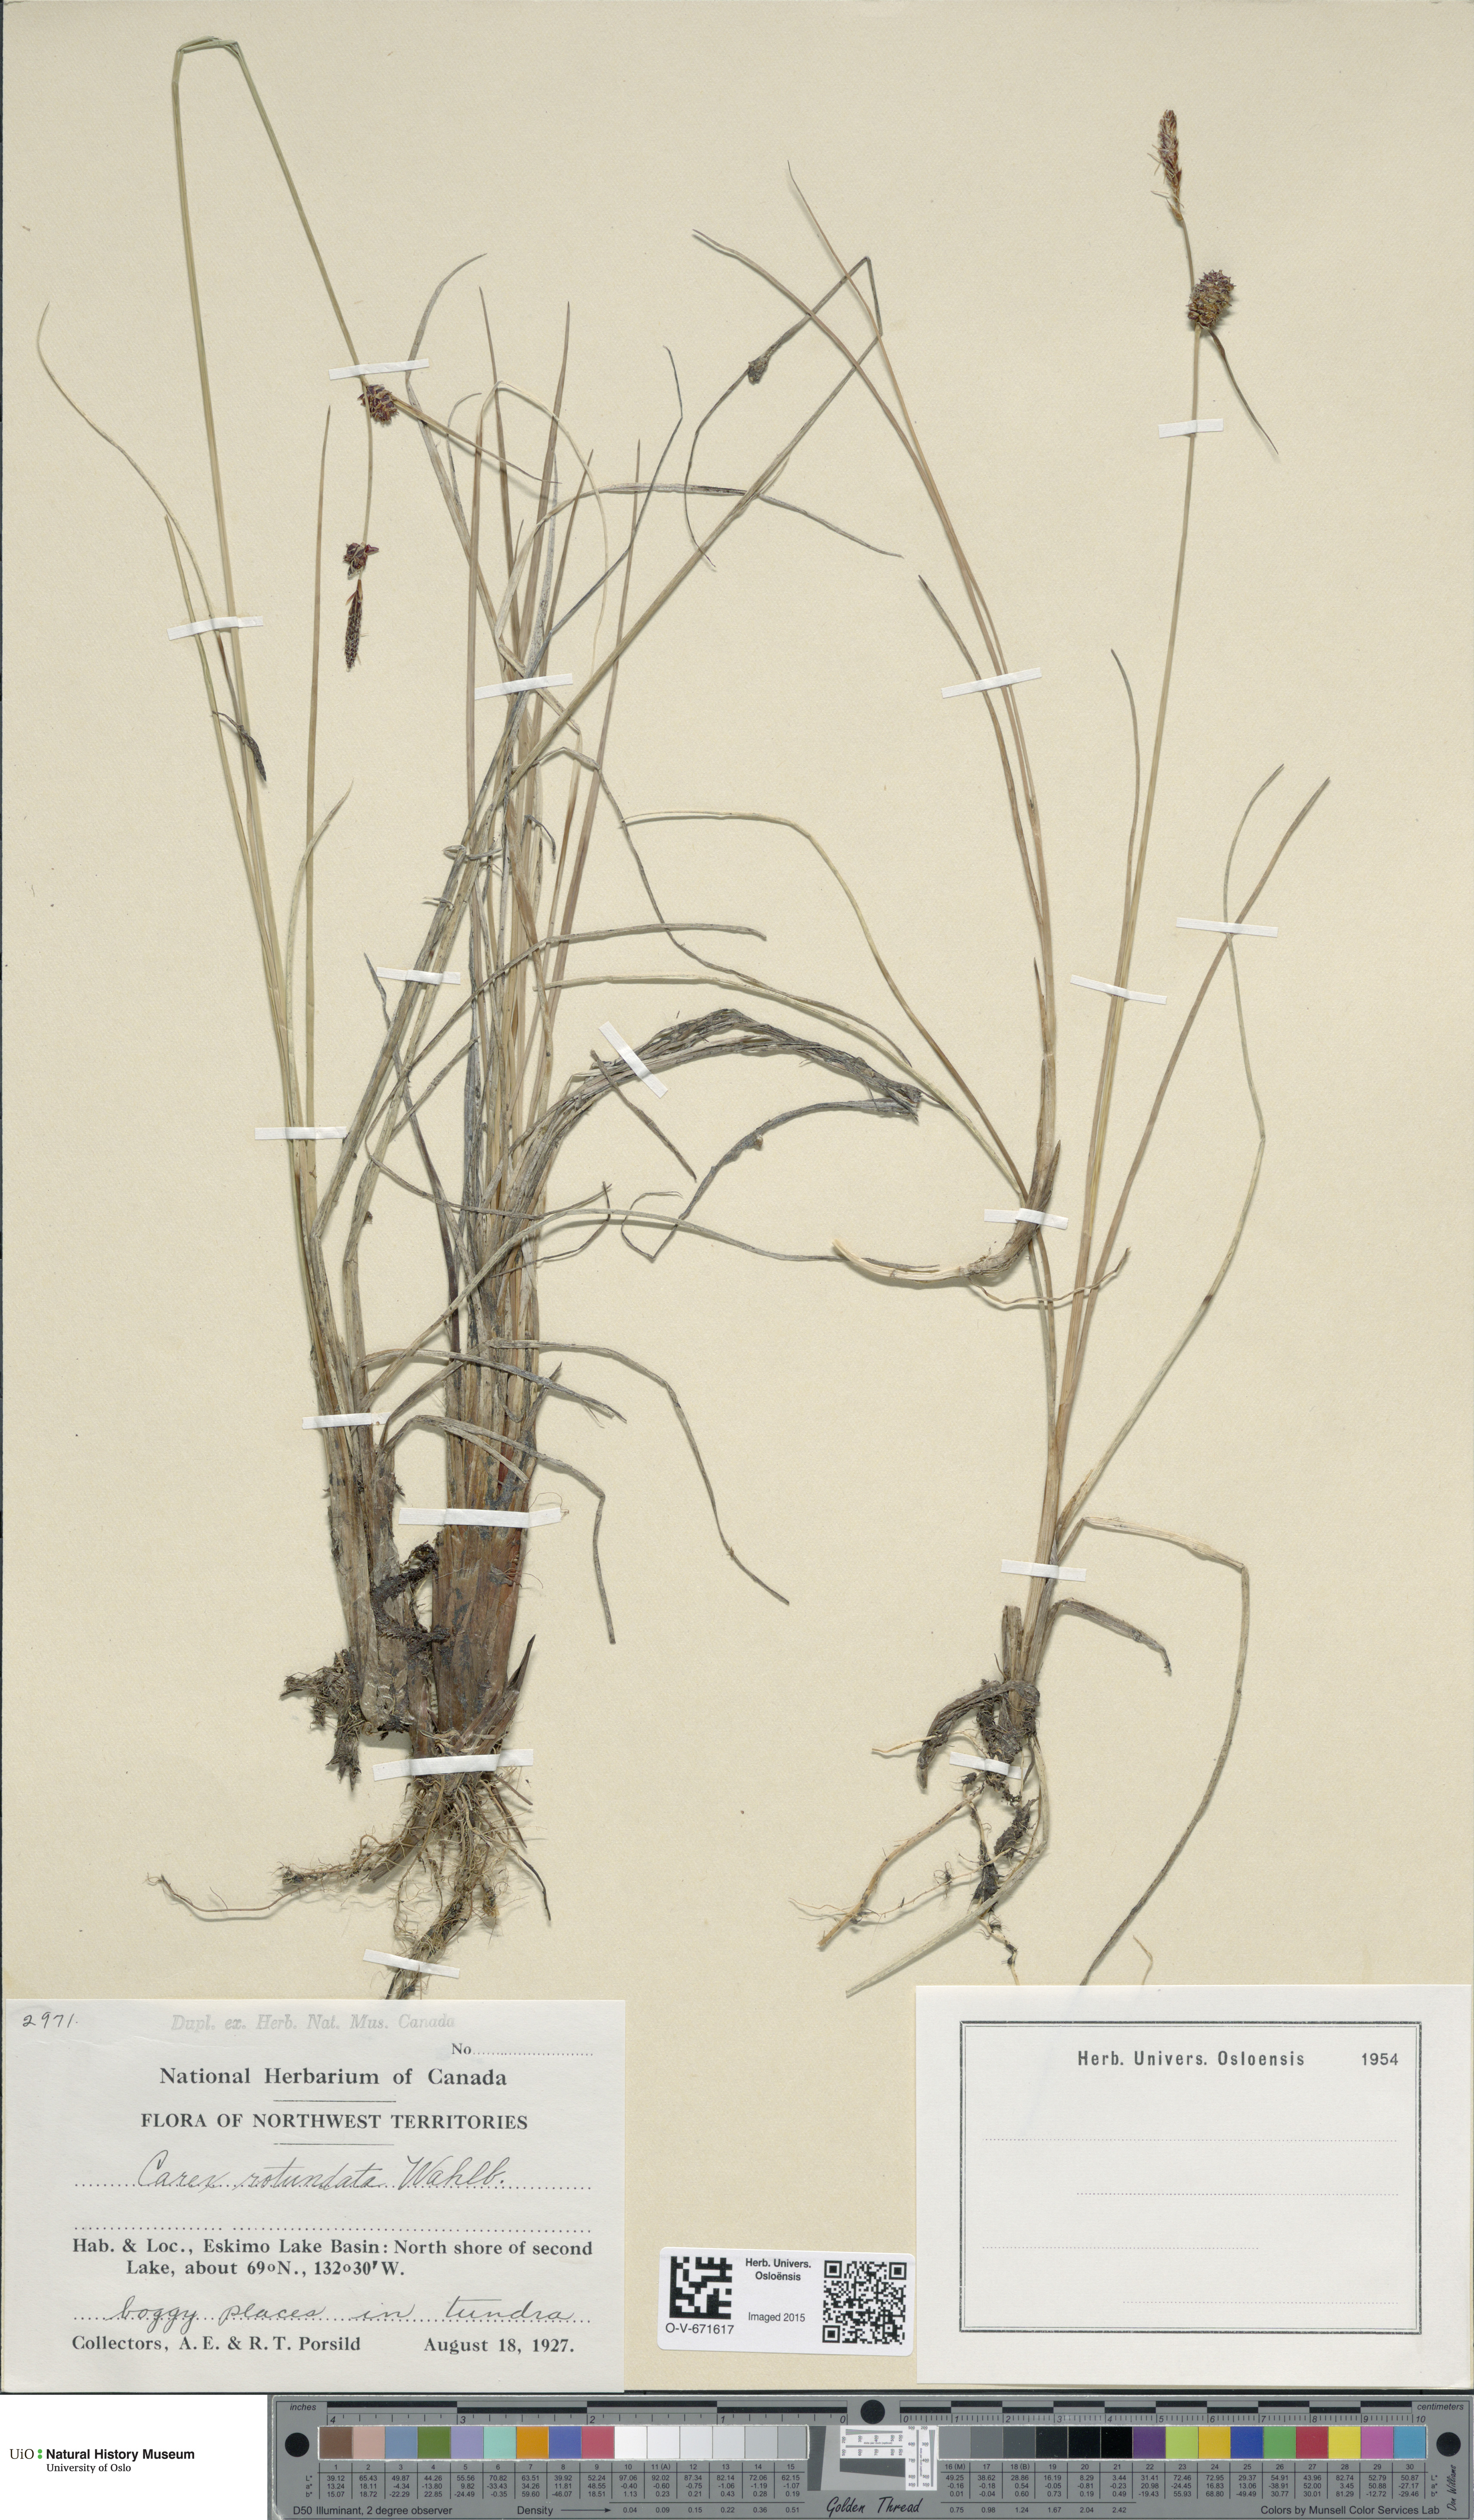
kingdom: Plantae
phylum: Tracheophyta
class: Liliopsida
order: Poales
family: Cyperaceae
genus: Carex
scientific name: Carex rotundata
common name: Round-fruited sedge
